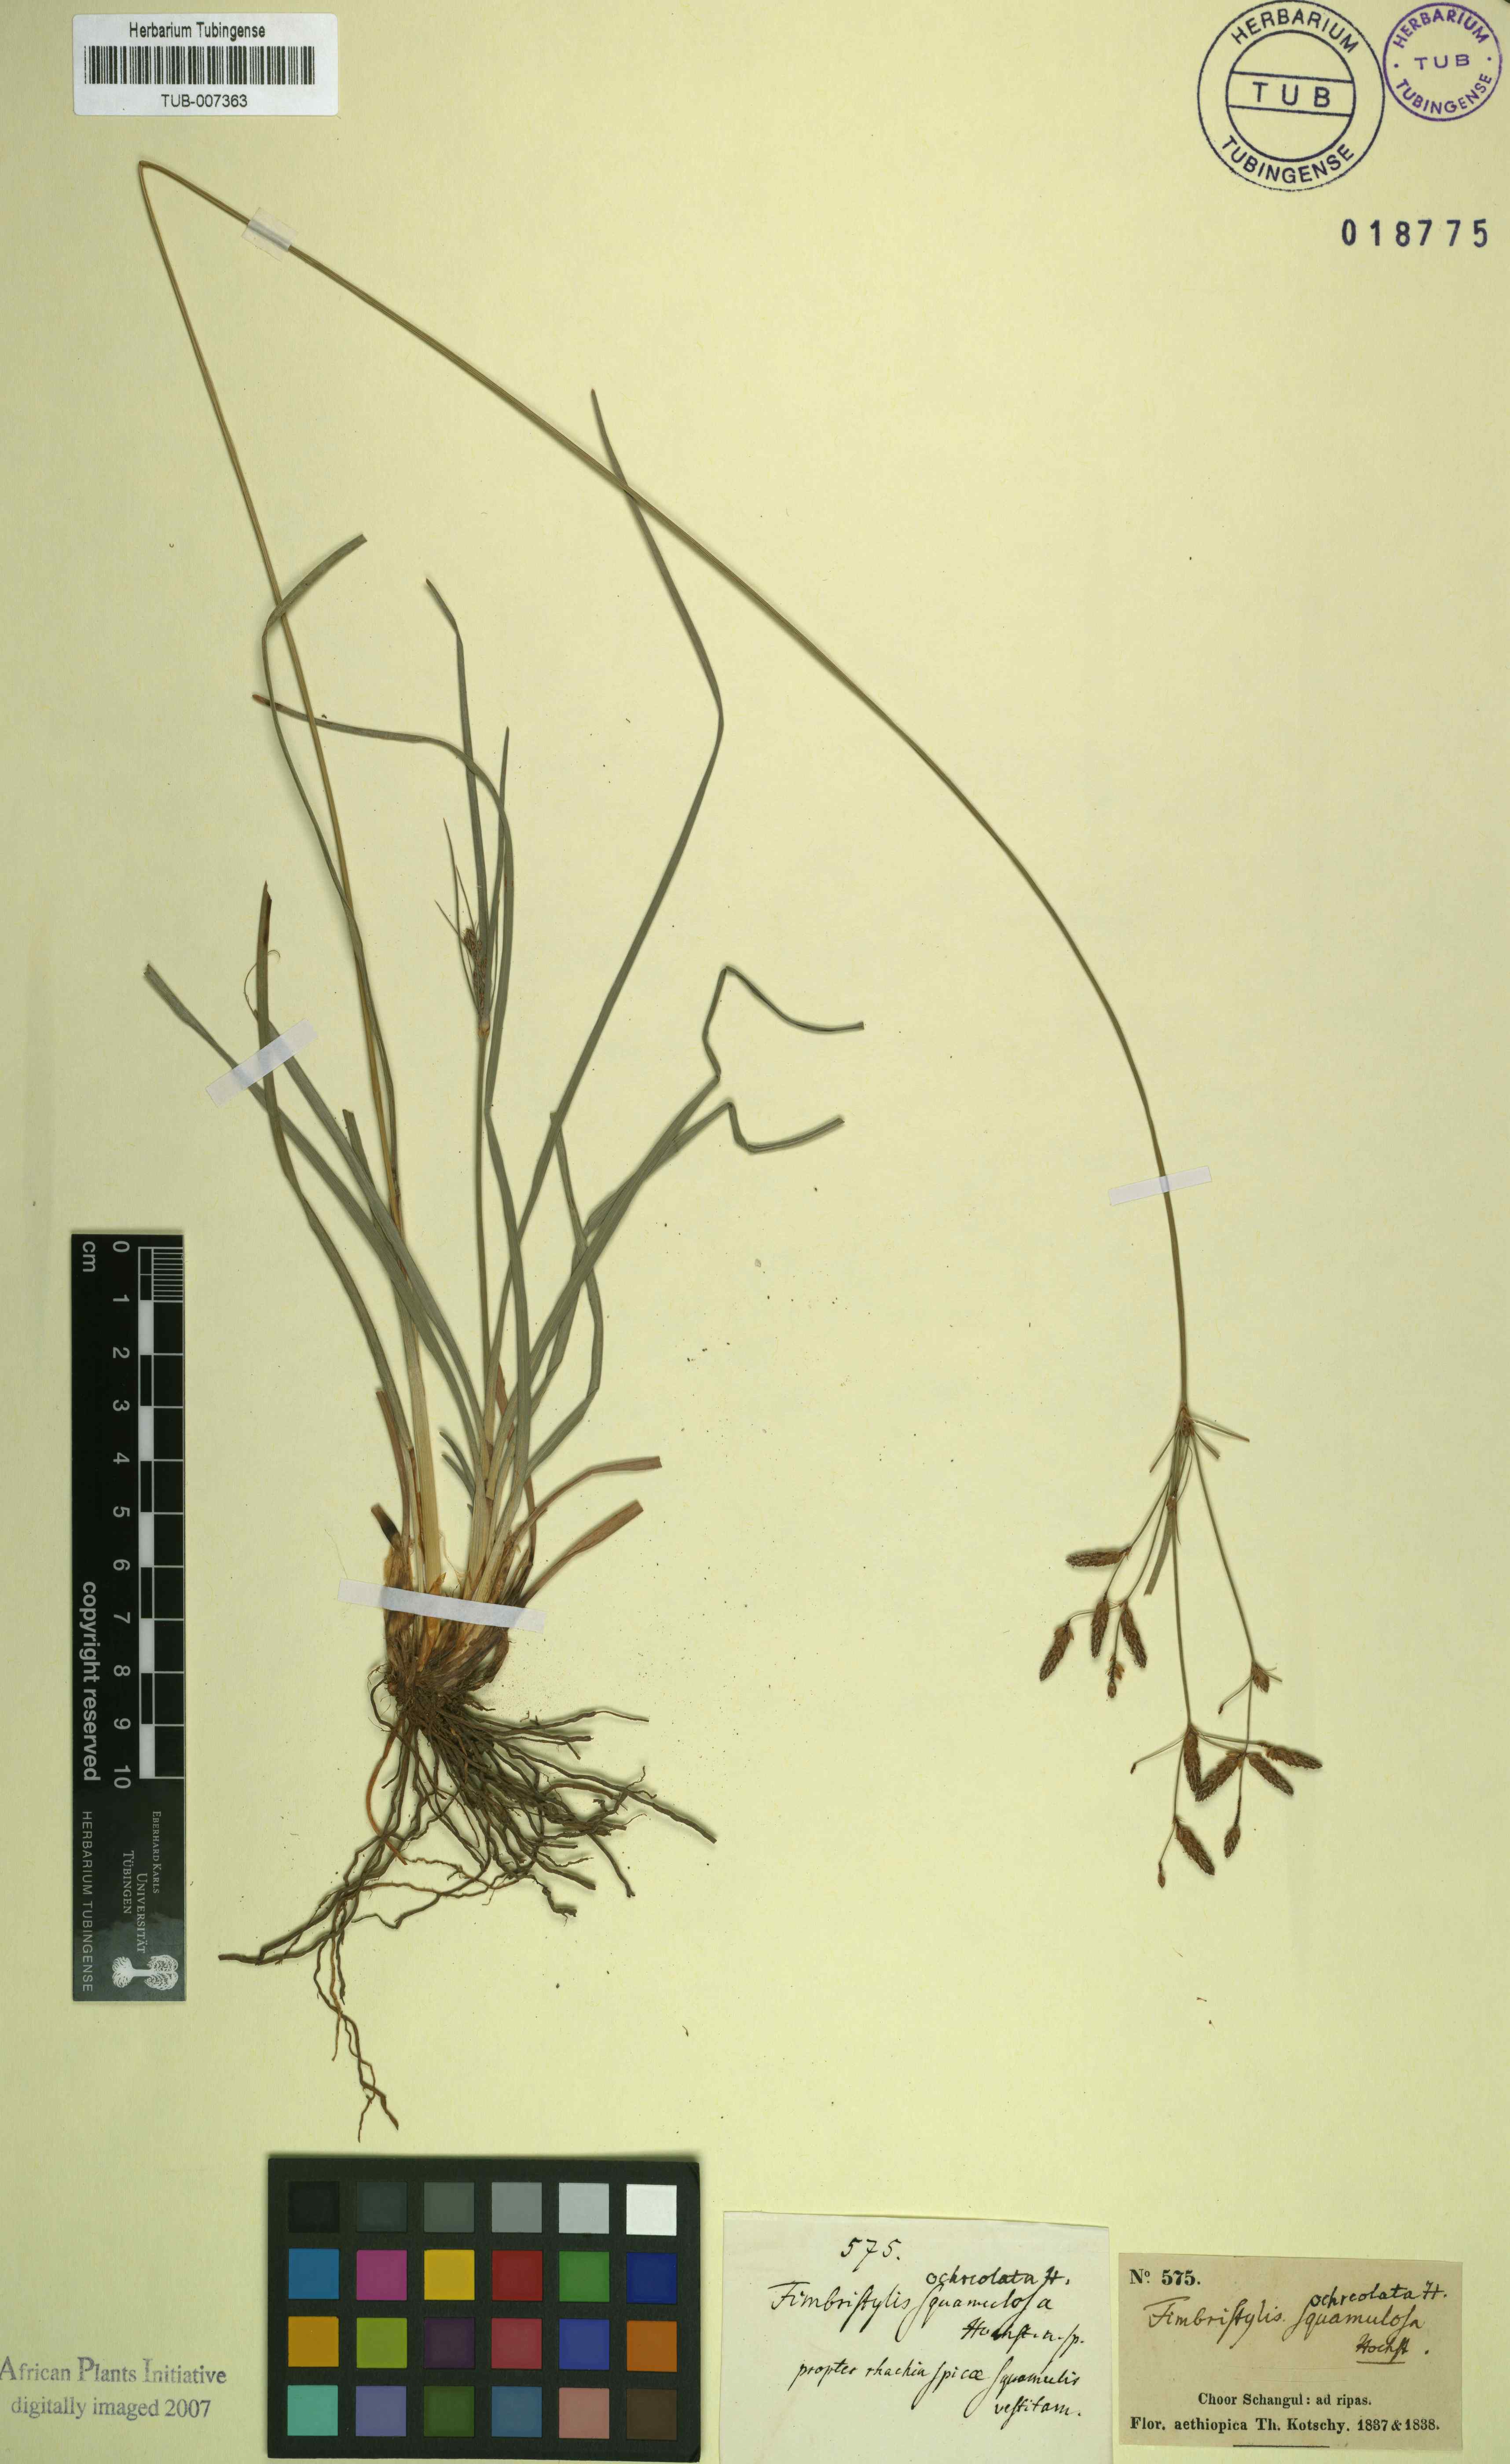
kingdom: Plantae
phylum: Tracheophyta
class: Liliopsida
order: Poales
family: Cyperaceae
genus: Fimbristylis
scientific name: Fimbristylis dichotoma
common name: Forked fimbry
